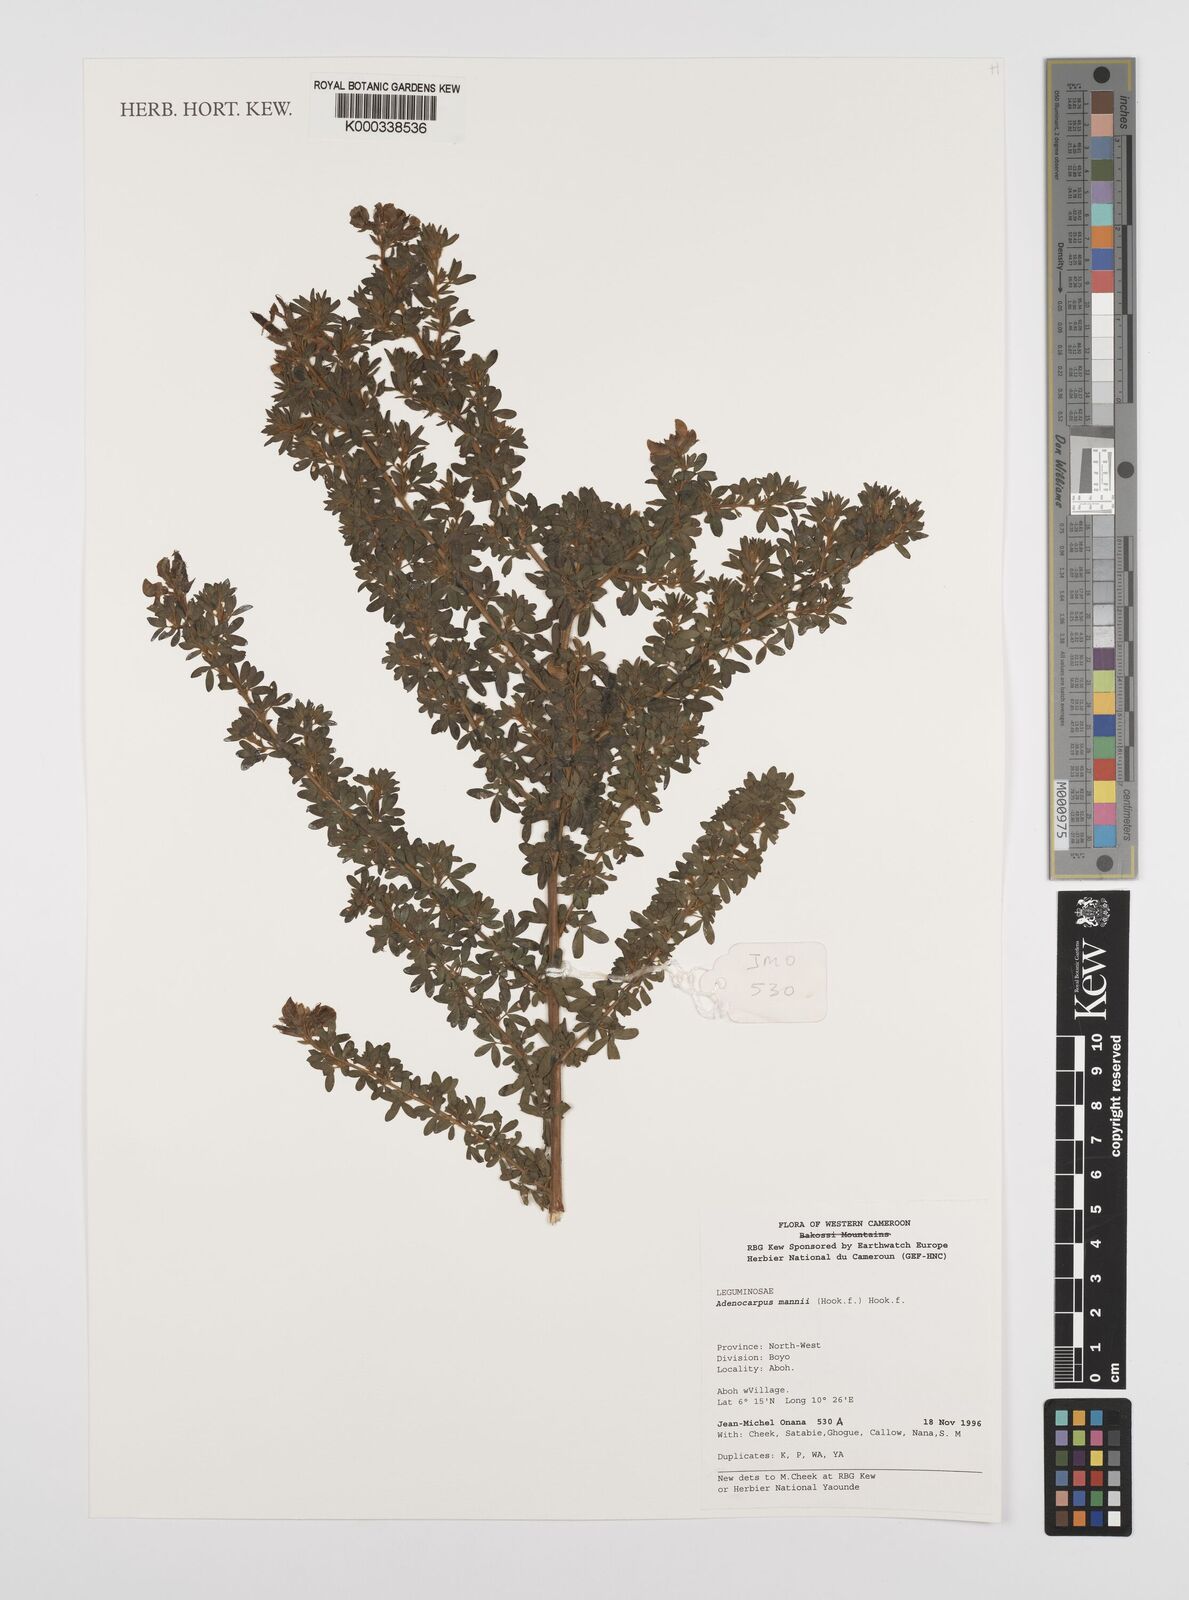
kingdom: Plantae
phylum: Tracheophyta
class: Magnoliopsida
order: Fabales
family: Fabaceae
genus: Adenocarpus
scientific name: Adenocarpus mannii
